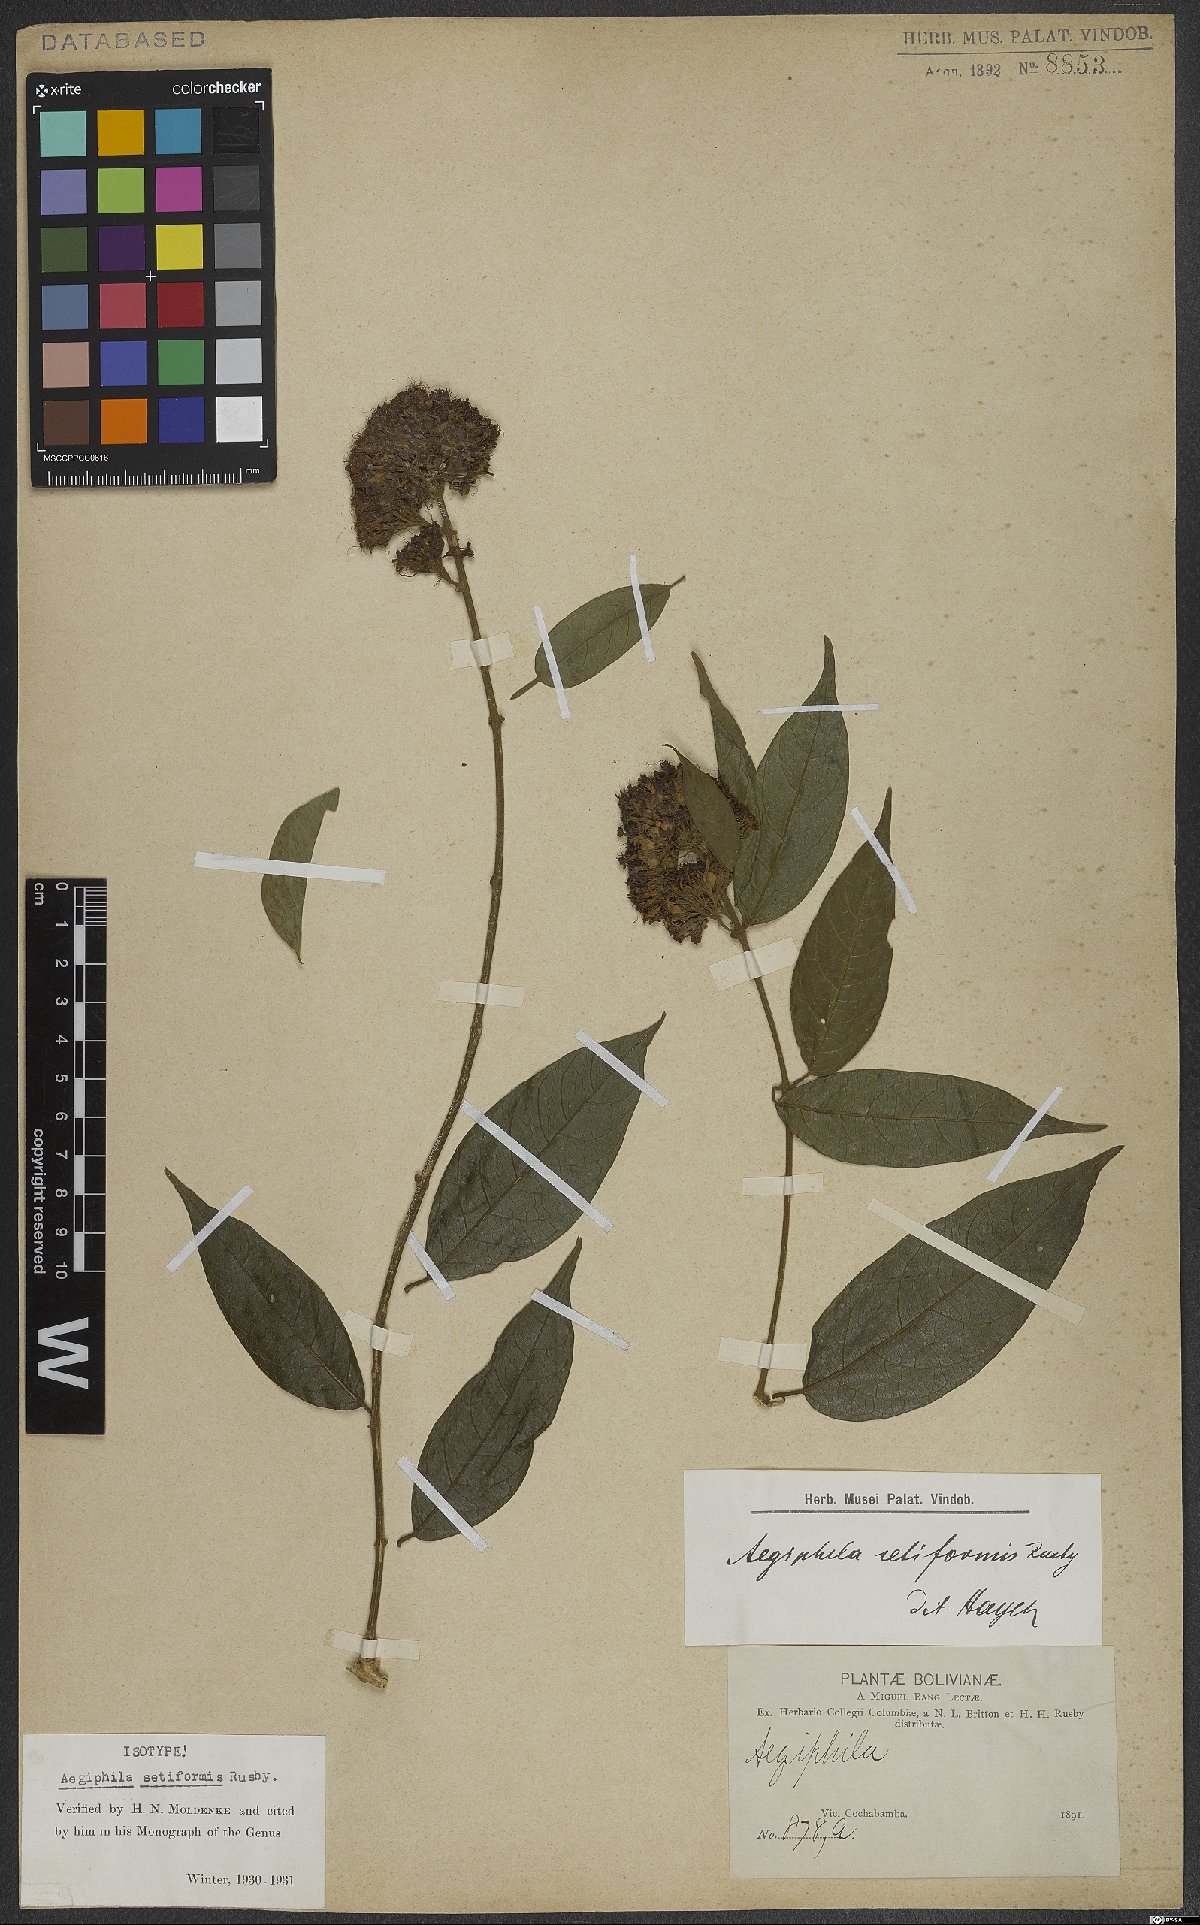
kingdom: Plantae
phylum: Tracheophyta
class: Magnoliopsida
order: Lamiales
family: Lamiaceae
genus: Aegiphila
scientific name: Aegiphila vitelliniflora
